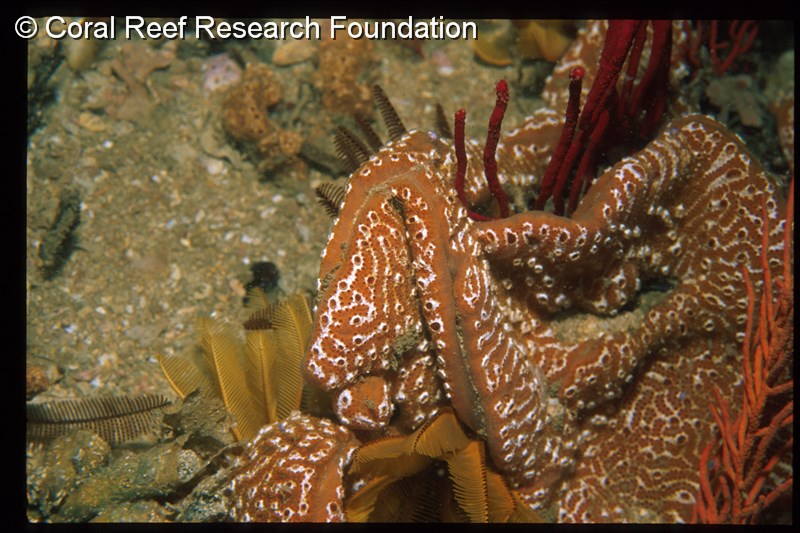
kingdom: Animalia
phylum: Chordata
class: Ascidiacea
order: Stolidobranchia
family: Styelidae
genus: Botryllus
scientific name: Botryllus gregalis
